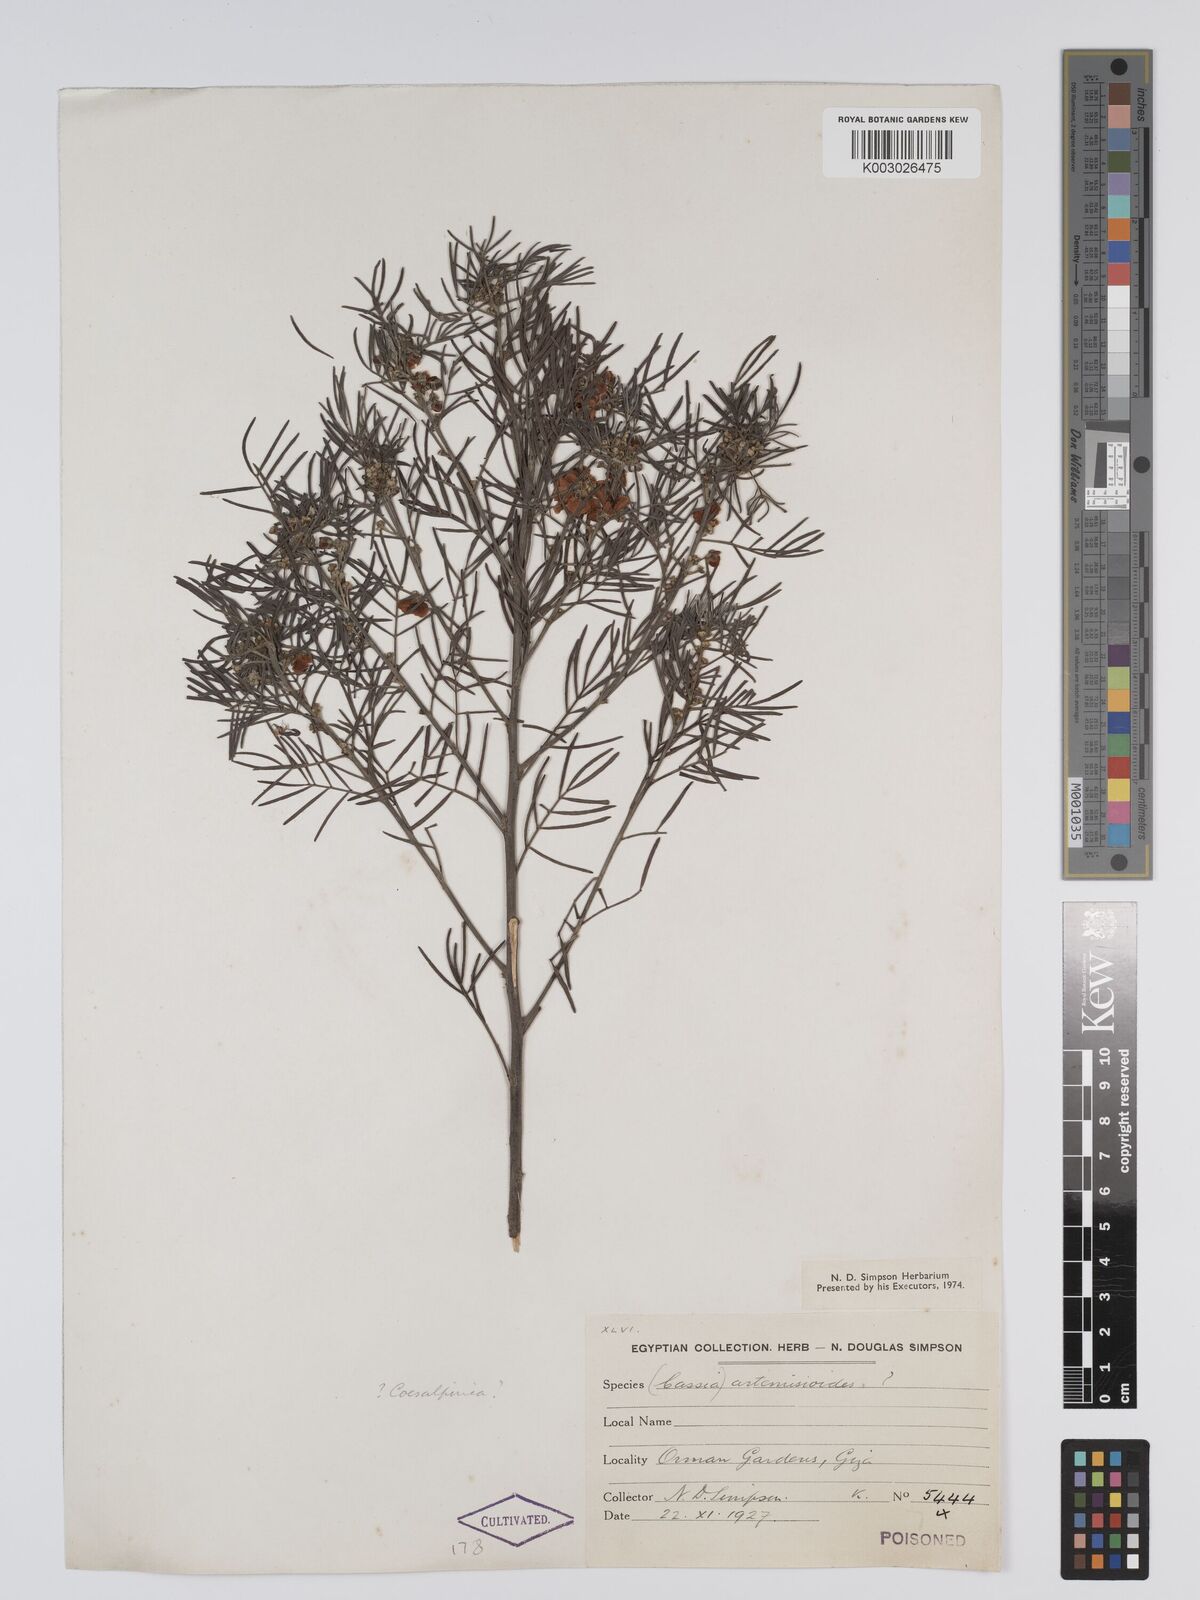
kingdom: Plantae
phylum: Tracheophyta
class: Magnoliopsida
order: Fabales
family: Fabaceae
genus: Senna
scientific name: Senna artemisioides
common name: Burnt-leaved acacia
